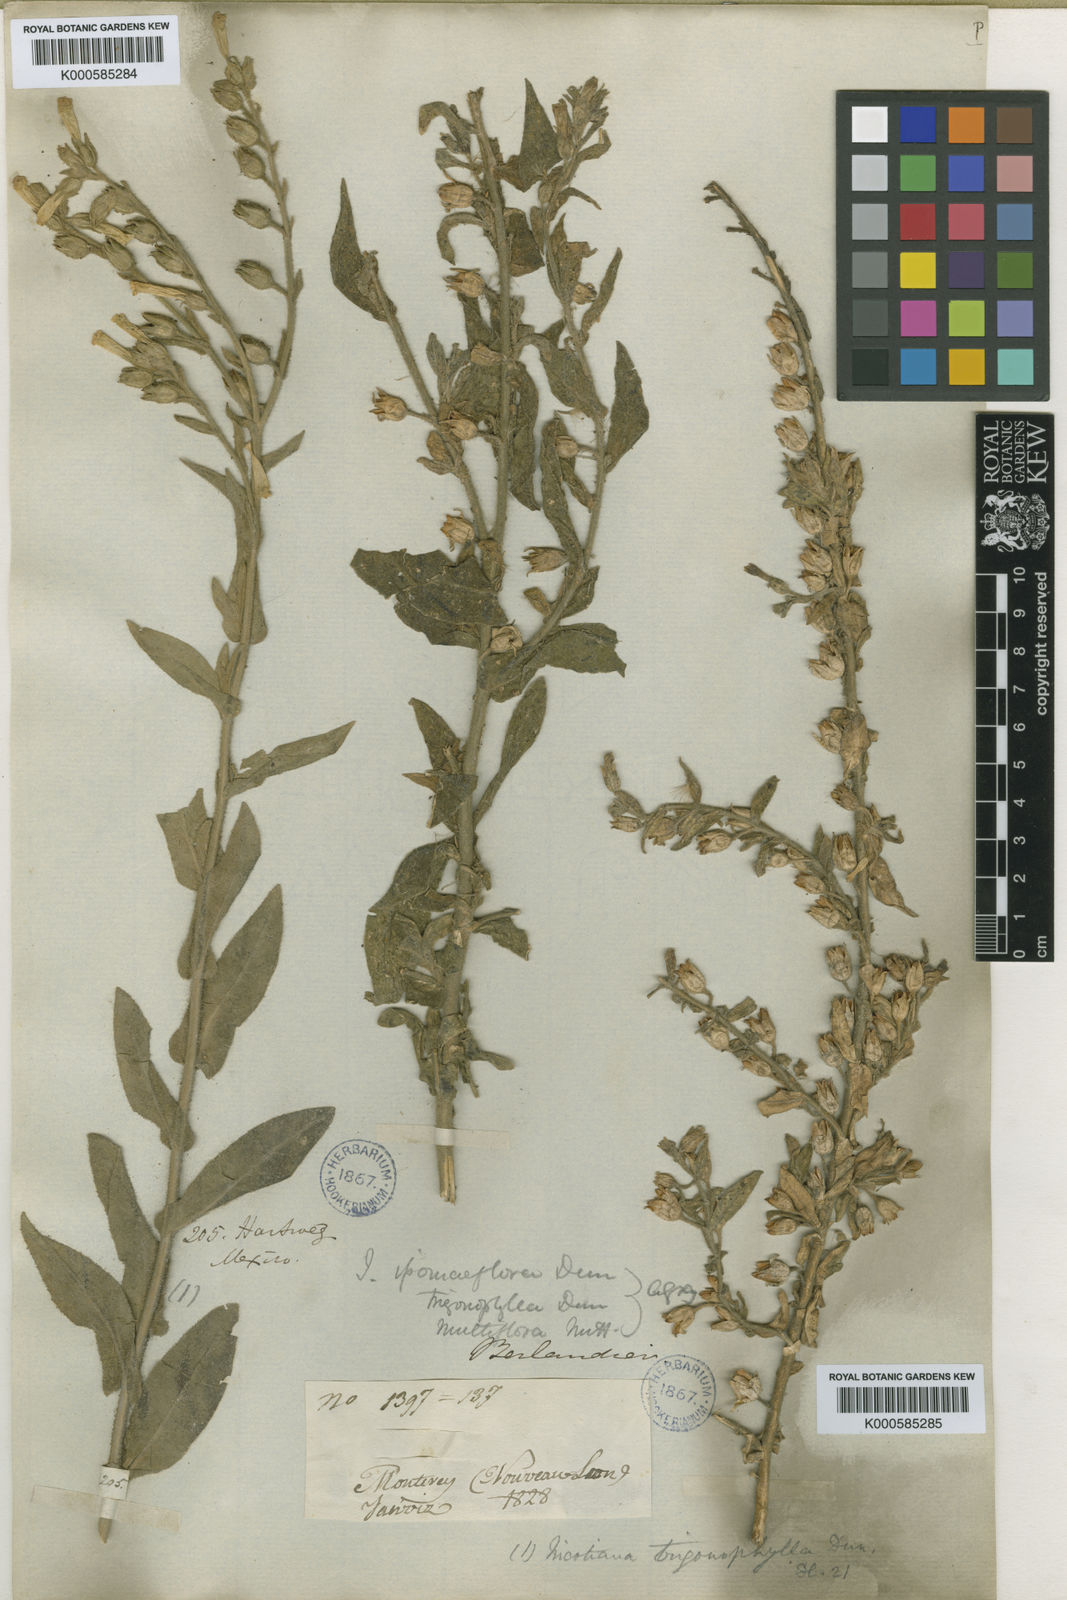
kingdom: Plantae
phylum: Tracheophyta
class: Magnoliopsida
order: Solanales
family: Solanaceae
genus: Nicotiana
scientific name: Nicotiana obtusifolia
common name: Desert tobacco
